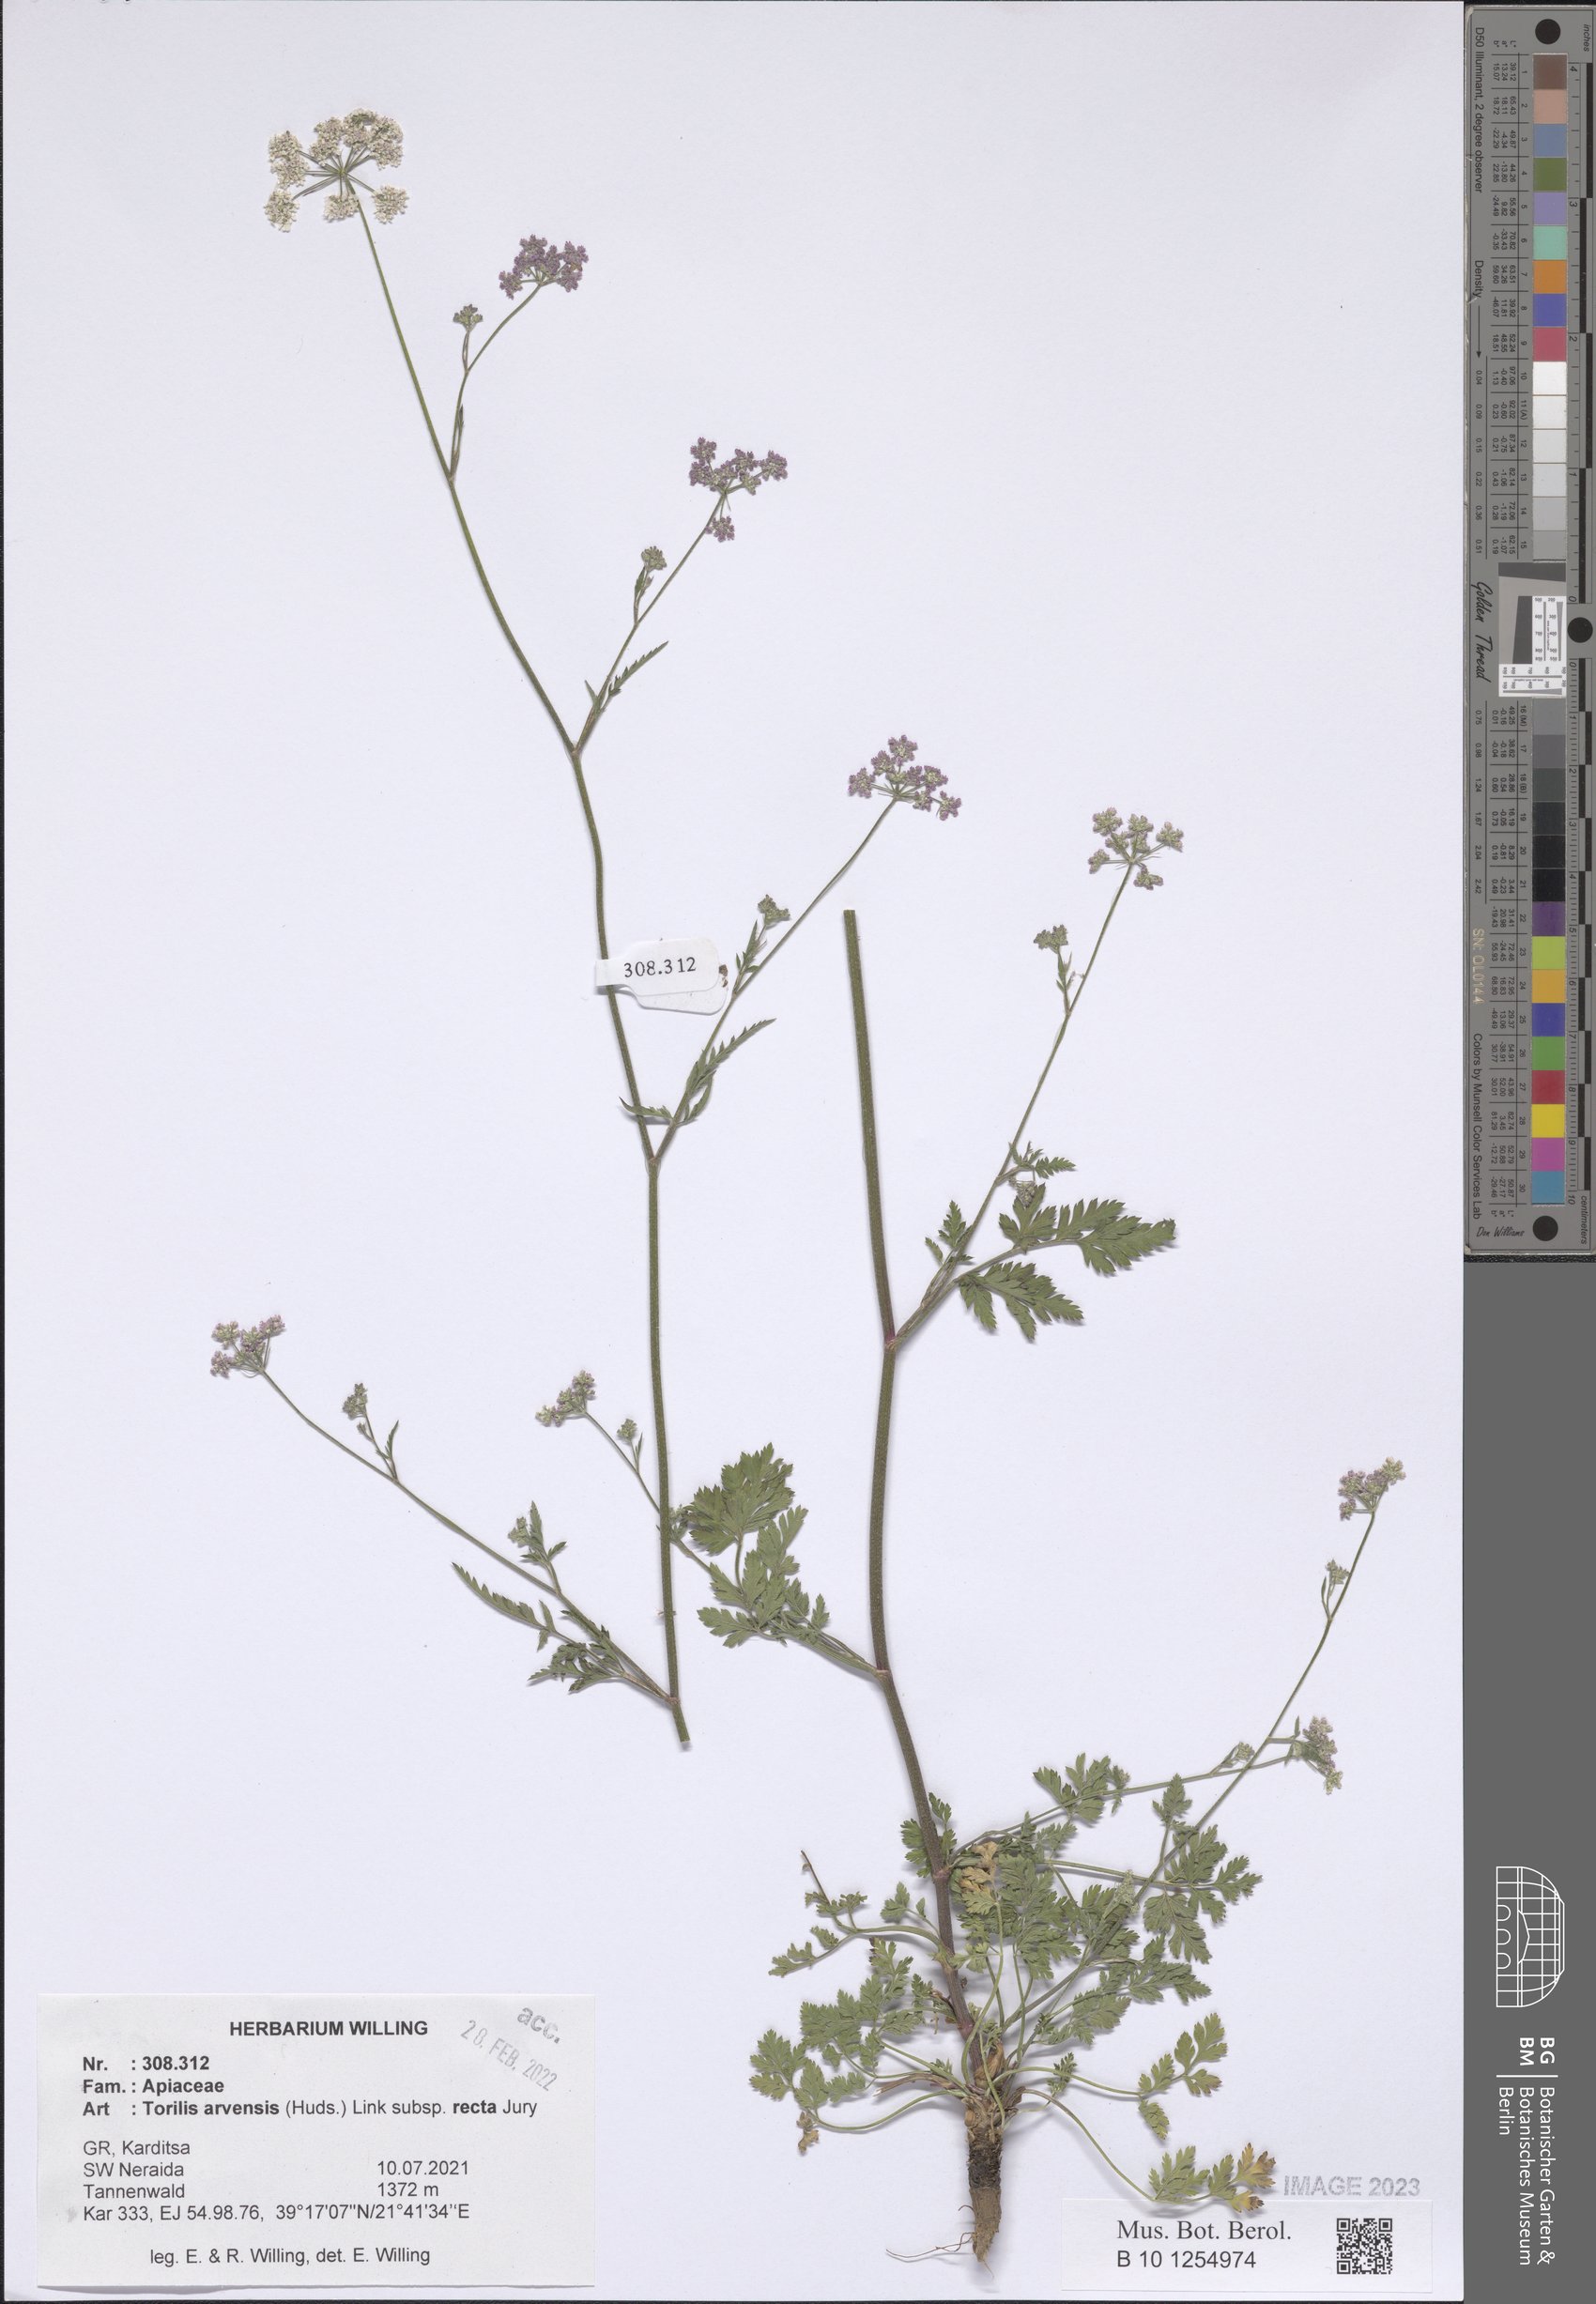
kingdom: Plantae
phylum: Tracheophyta
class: Magnoliopsida
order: Apiales
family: Apiaceae
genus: Torilis
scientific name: Torilis arvensis
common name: Spreading hedge-parsley
